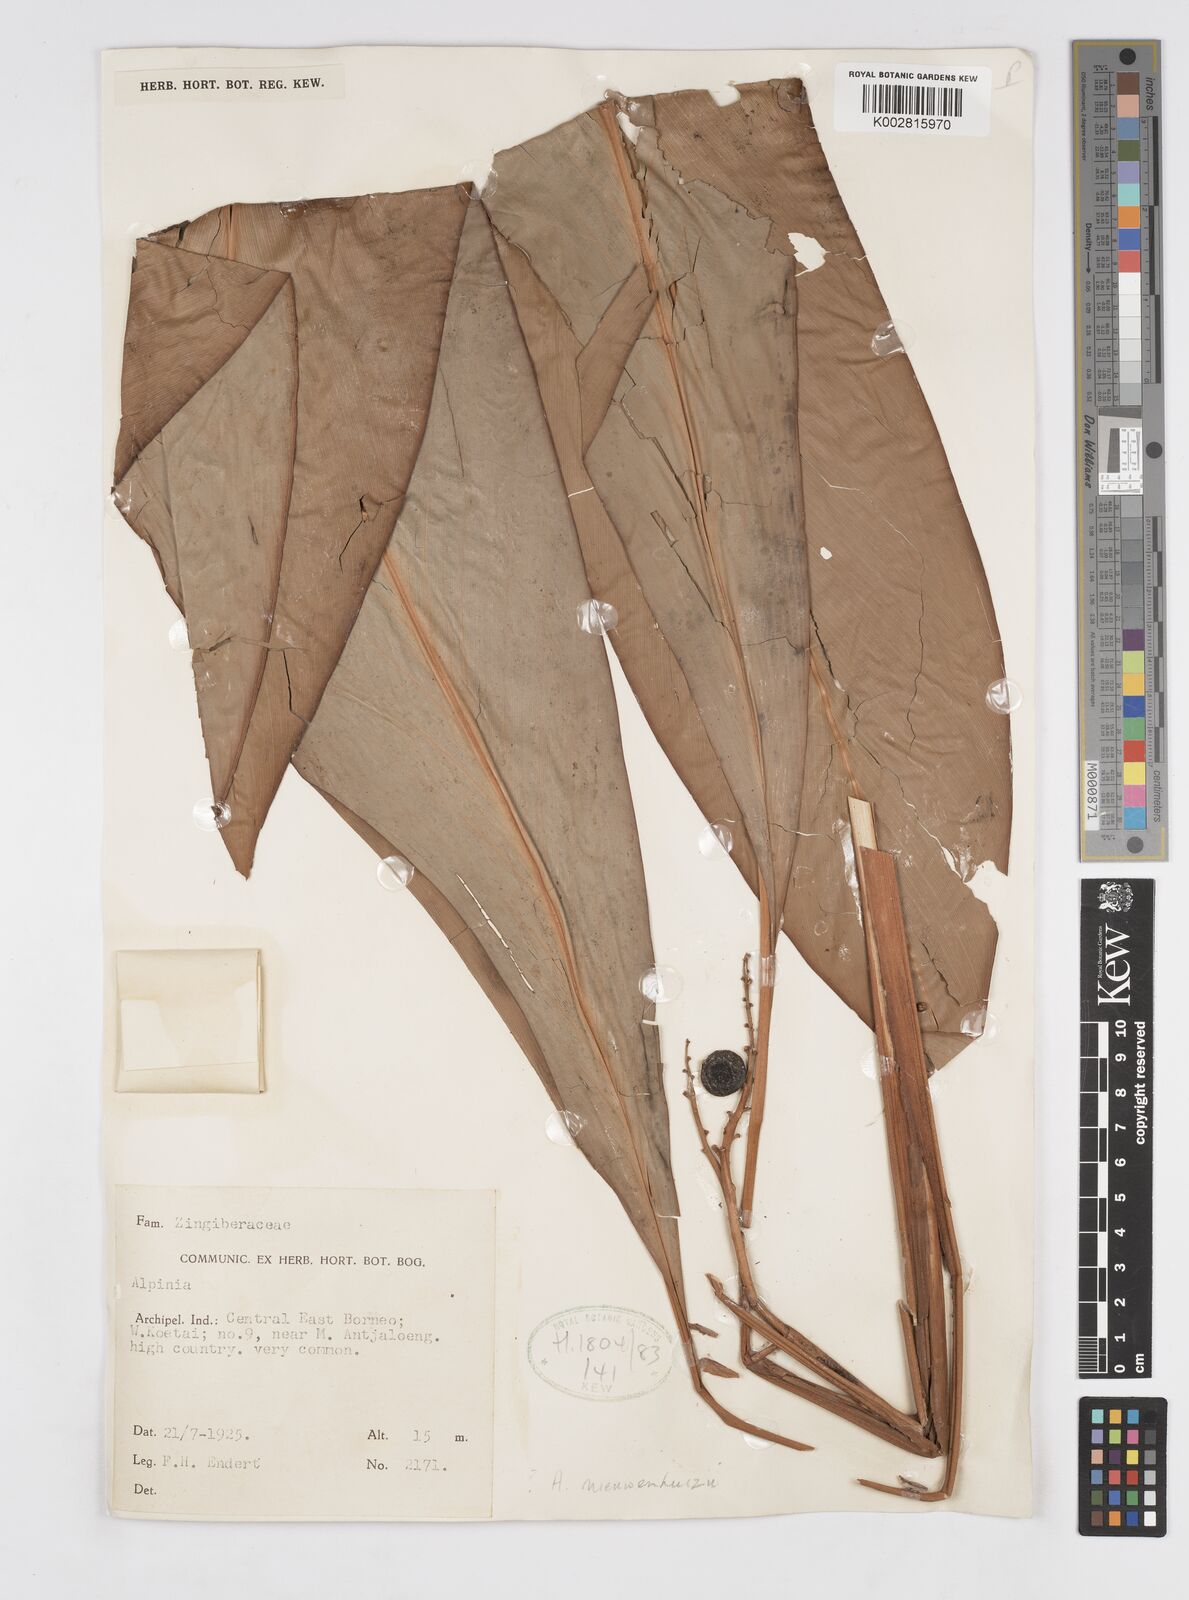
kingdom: Plantae
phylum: Tracheophyta
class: Liliopsida
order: Zingiberales
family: Zingiberaceae
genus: Alpinia
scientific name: Alpinia nieuwenhuizii
